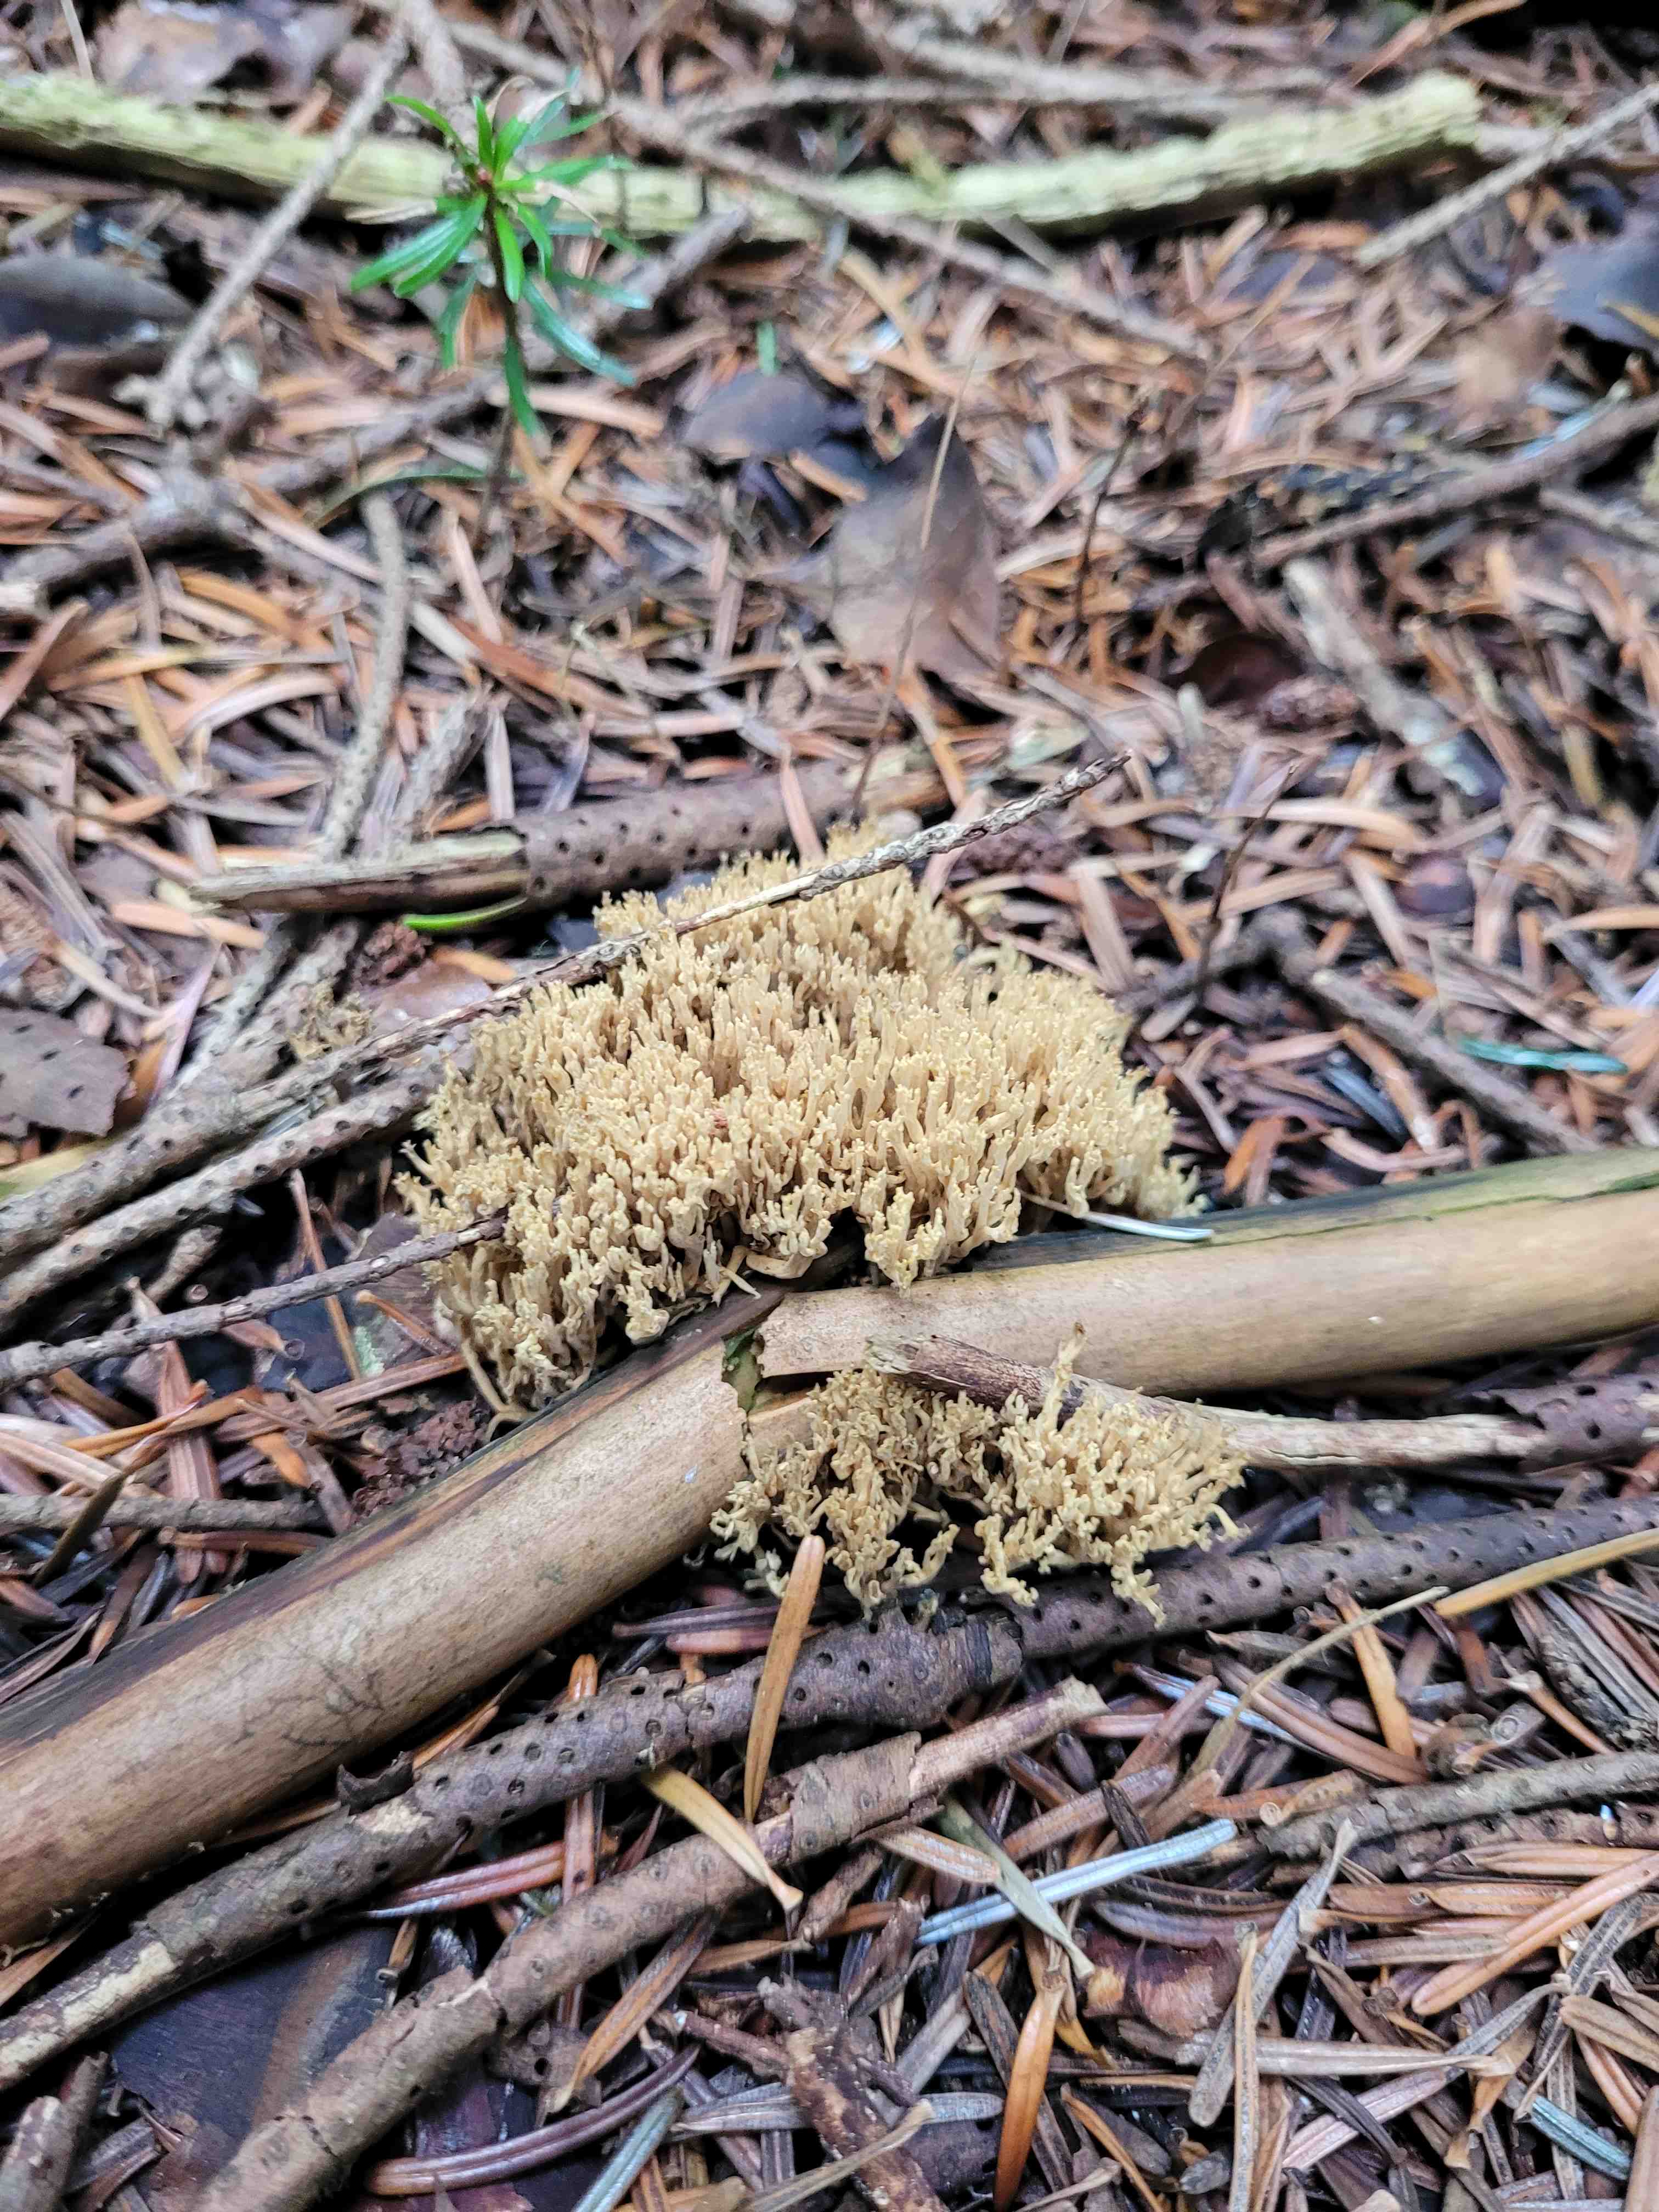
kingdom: Fungi
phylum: Basidiomycota
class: Agaricomycetes
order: Gomphales
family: Gomphaceae
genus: Phaeoclavulina
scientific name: Phaeoclavulina eumorpha
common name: gran-koralsvamp
